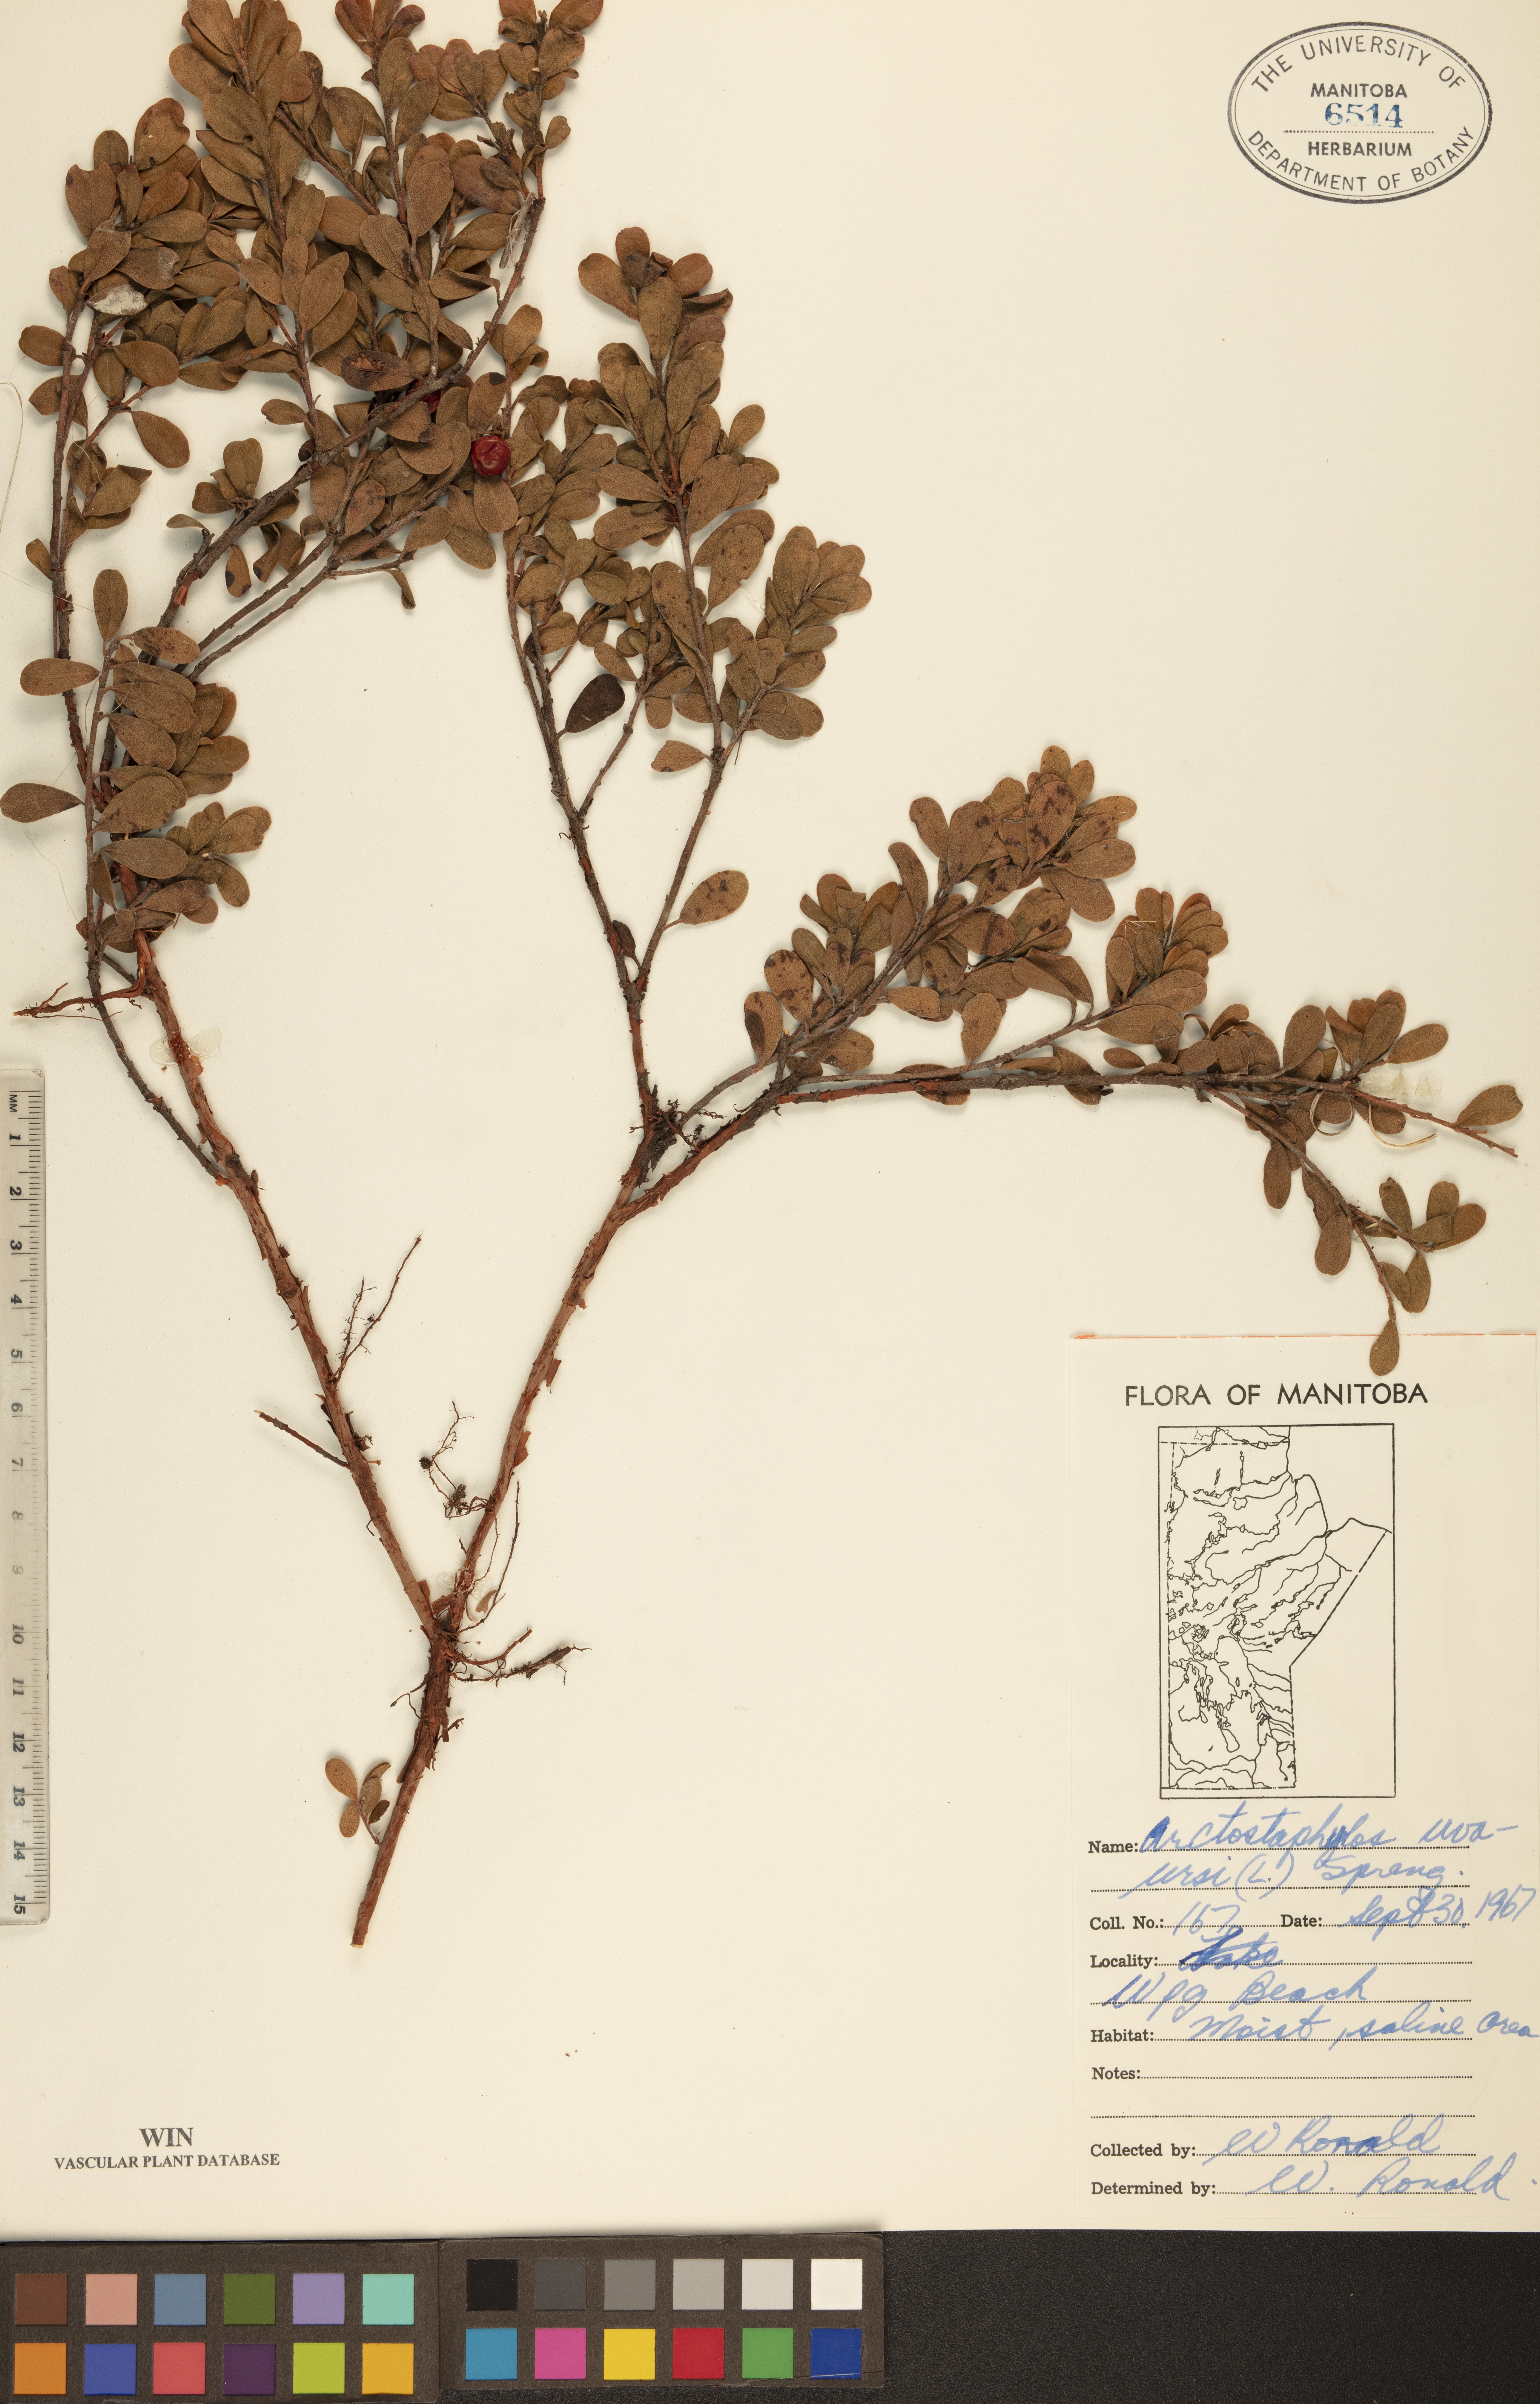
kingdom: Plantae
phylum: Tracheophyta
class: Magnoliopsida
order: Ericales
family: Ericaceae
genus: Arctostaphylos
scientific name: Arctostaphylos uva-ursi
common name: Bearberry
